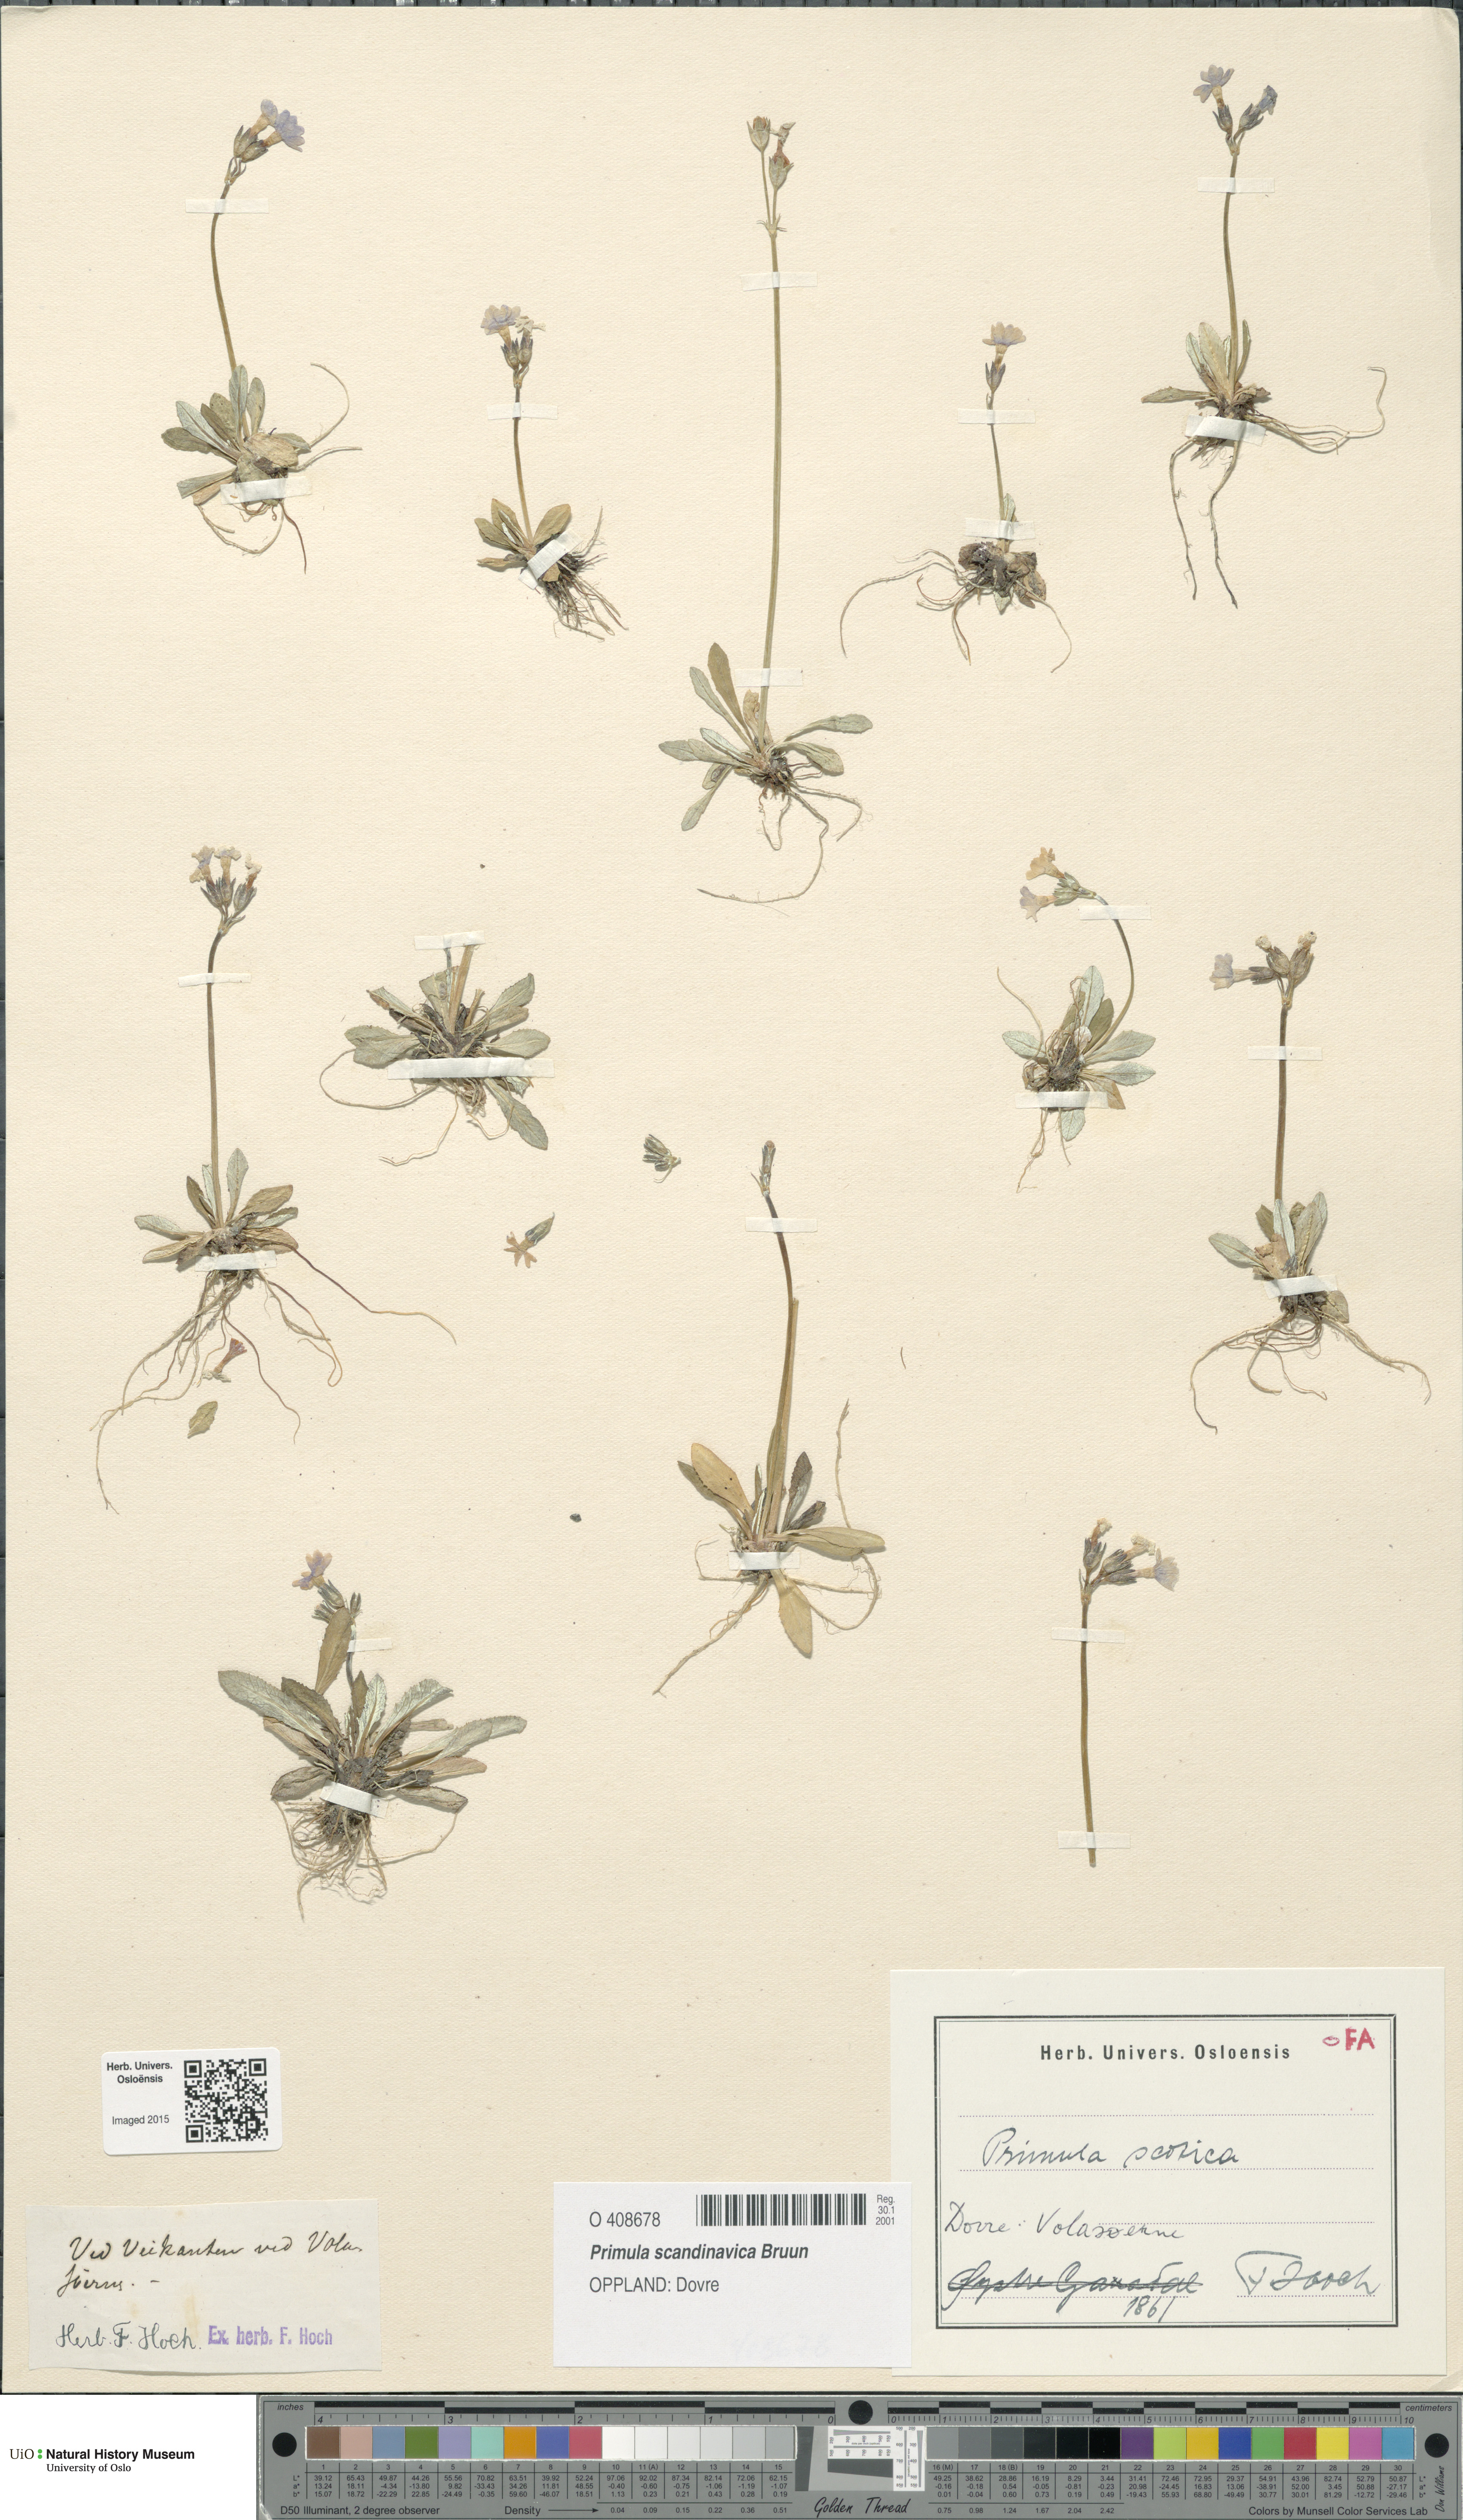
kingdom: Plantae
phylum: Tracheophyta
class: Magnoliopsida
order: Ericales
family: Primulaceae
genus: Primula
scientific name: Primula scandinavica
